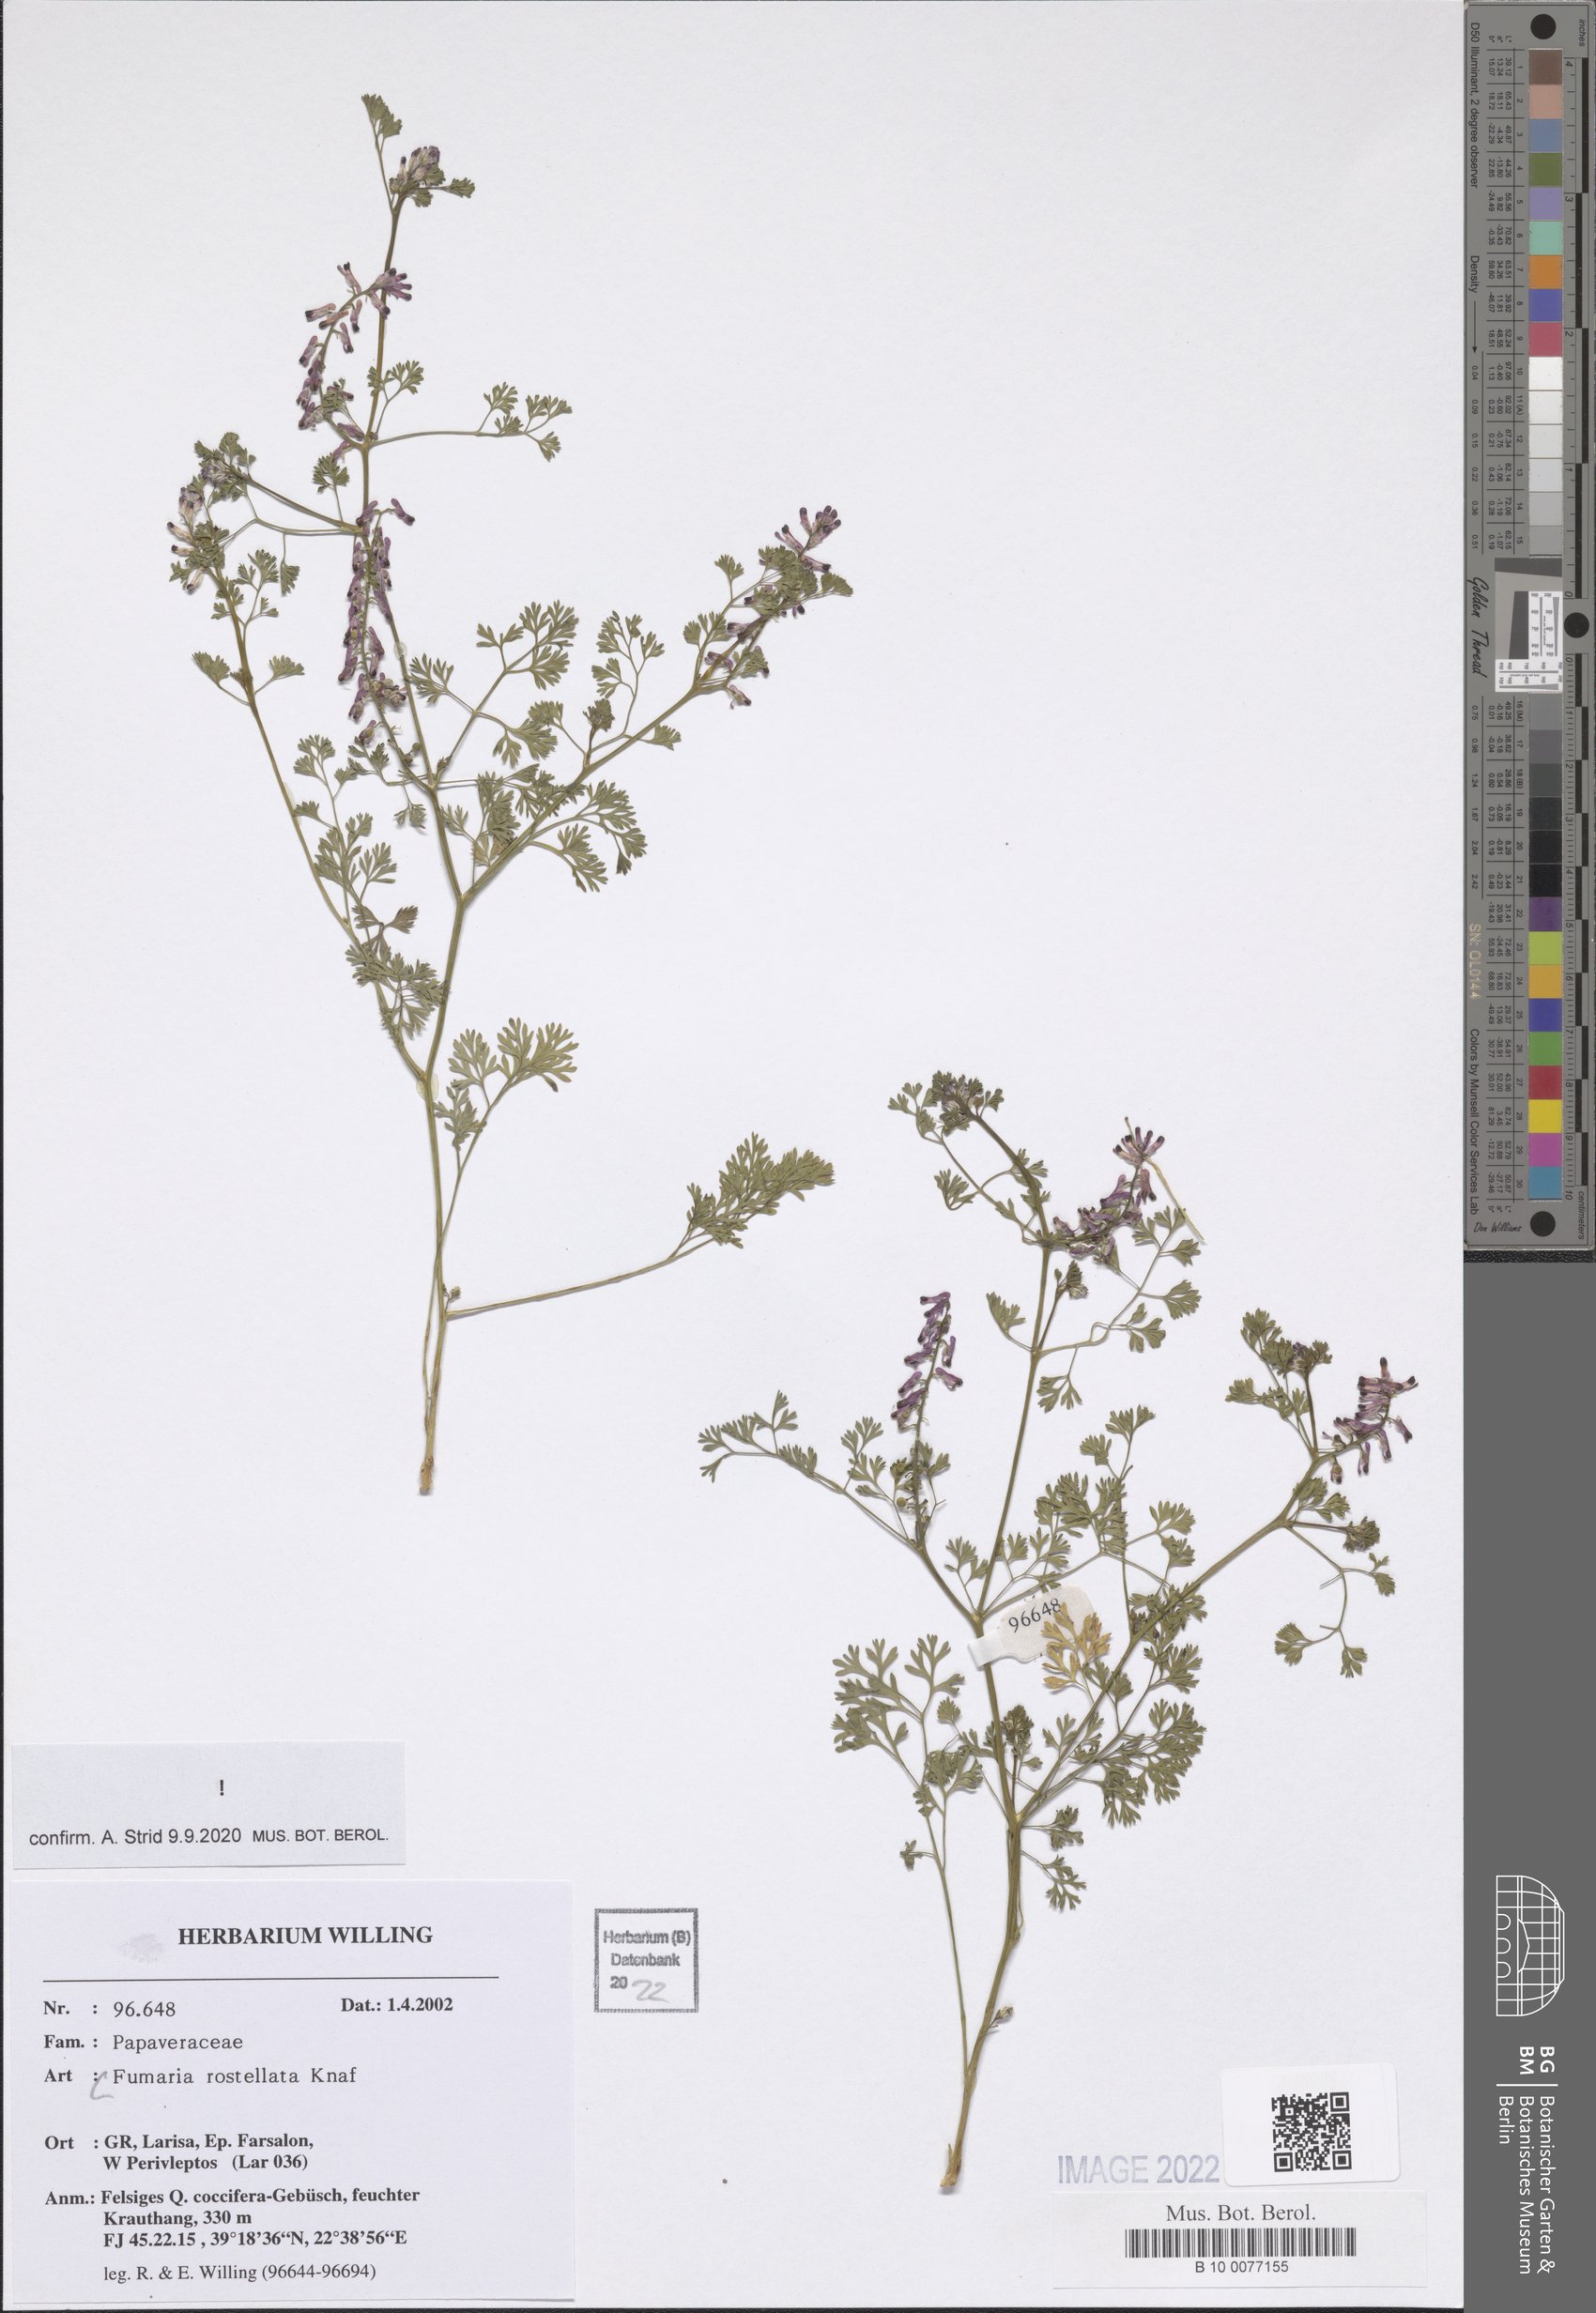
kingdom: Plantae
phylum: Tracheophyta
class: Magnoliopsida
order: Ranunculales
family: Papaveraceae
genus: Fumaria
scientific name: Fumaria rostellata
